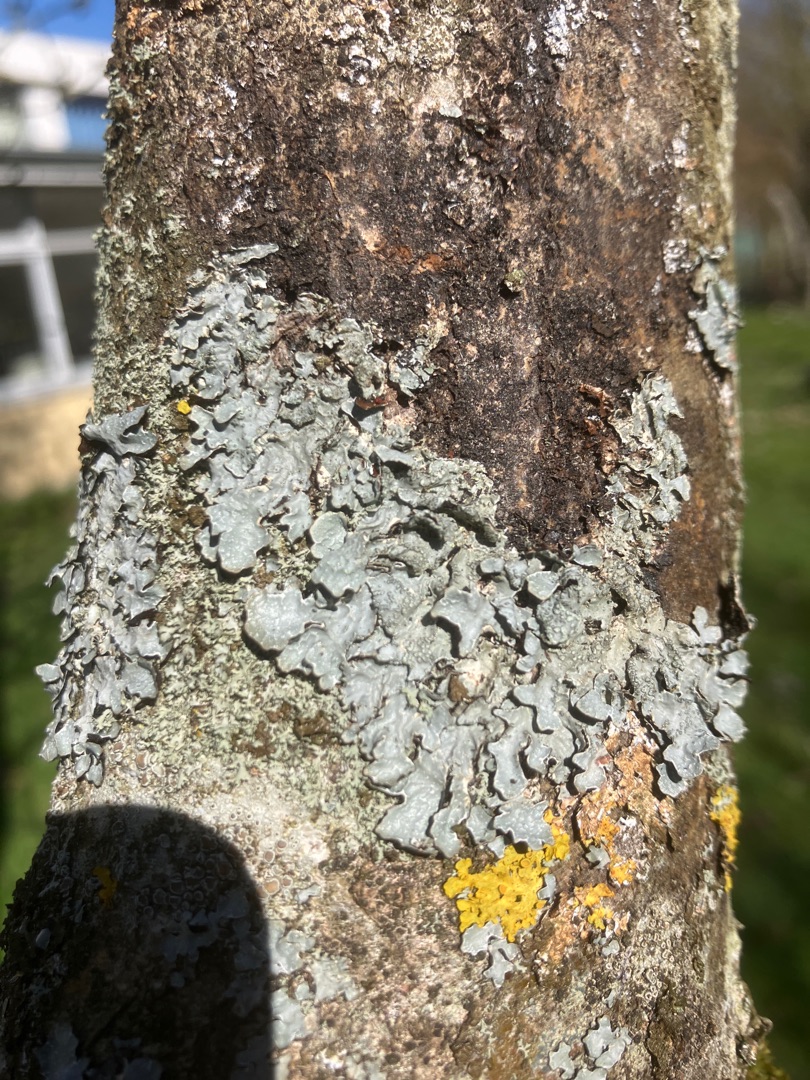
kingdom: Fungi
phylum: Ascomycota
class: Lecanoromycetes
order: Lecanorales
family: Parmeliaceae
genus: Parmelia
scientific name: Parmelia sulcata
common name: Rynket skållav
